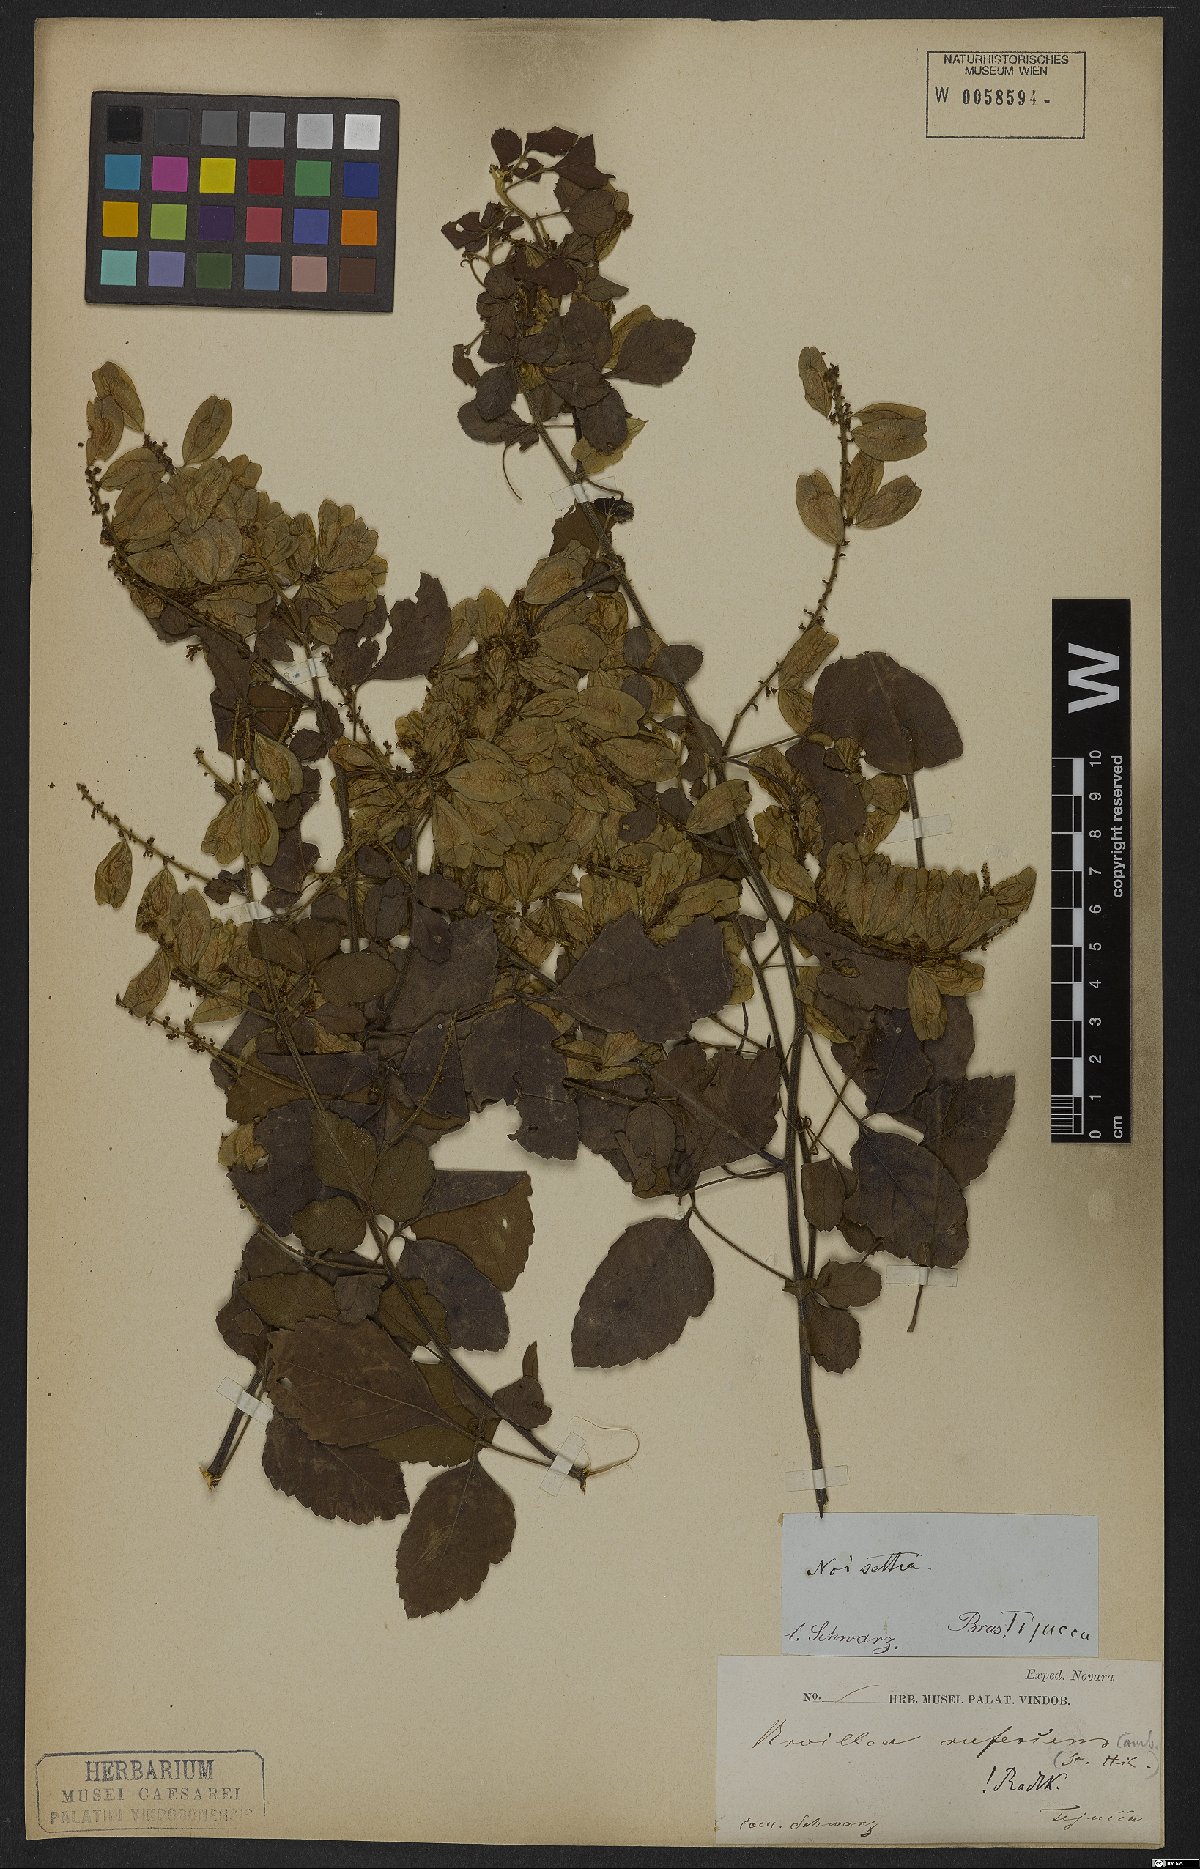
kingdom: Plantae
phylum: Tracheophyta
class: Magnoliopsida
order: Sapindales
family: Sapindaceae
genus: Urvillea
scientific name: Urvillea rufescens
